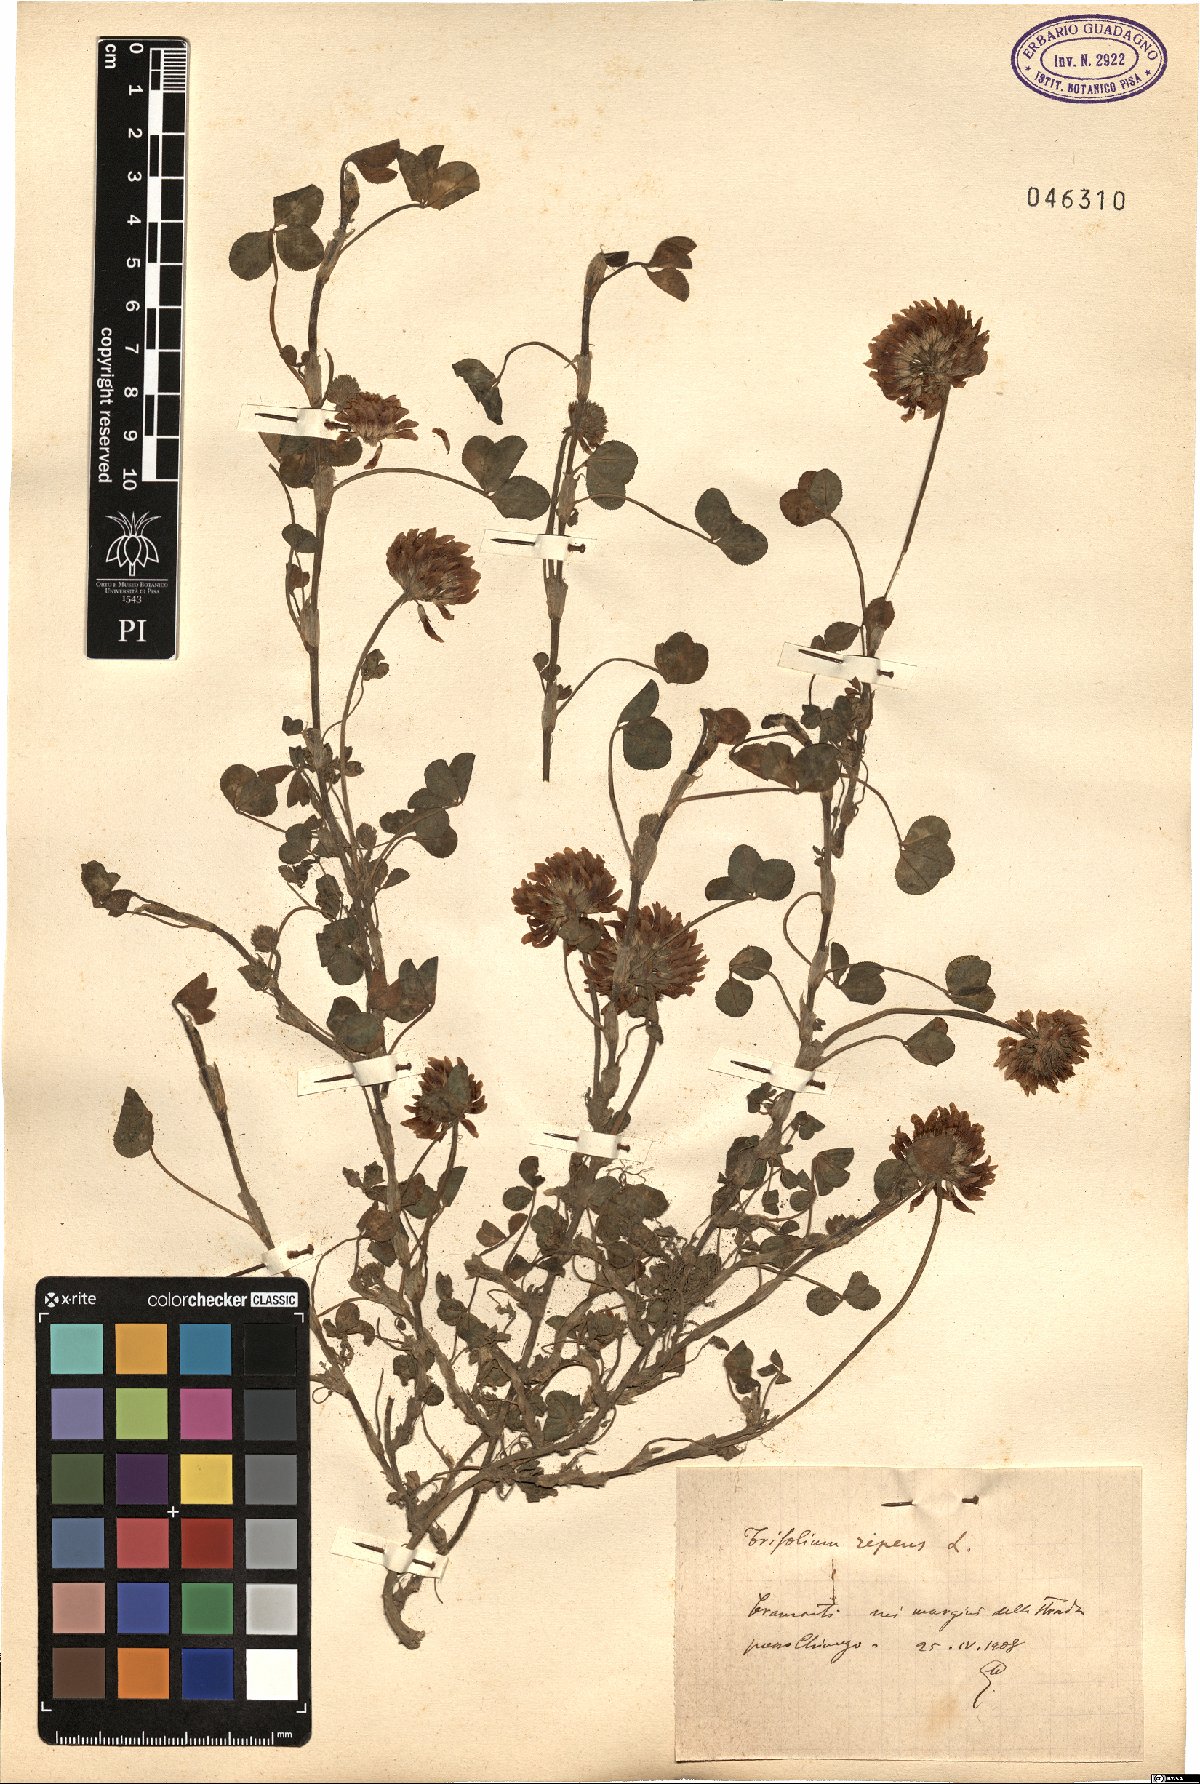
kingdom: Plantae
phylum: Tracheophyta
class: Magnoliopsida
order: Fabales
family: Fabaceae
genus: Trifolium
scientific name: Trifolium repens
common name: White clover
